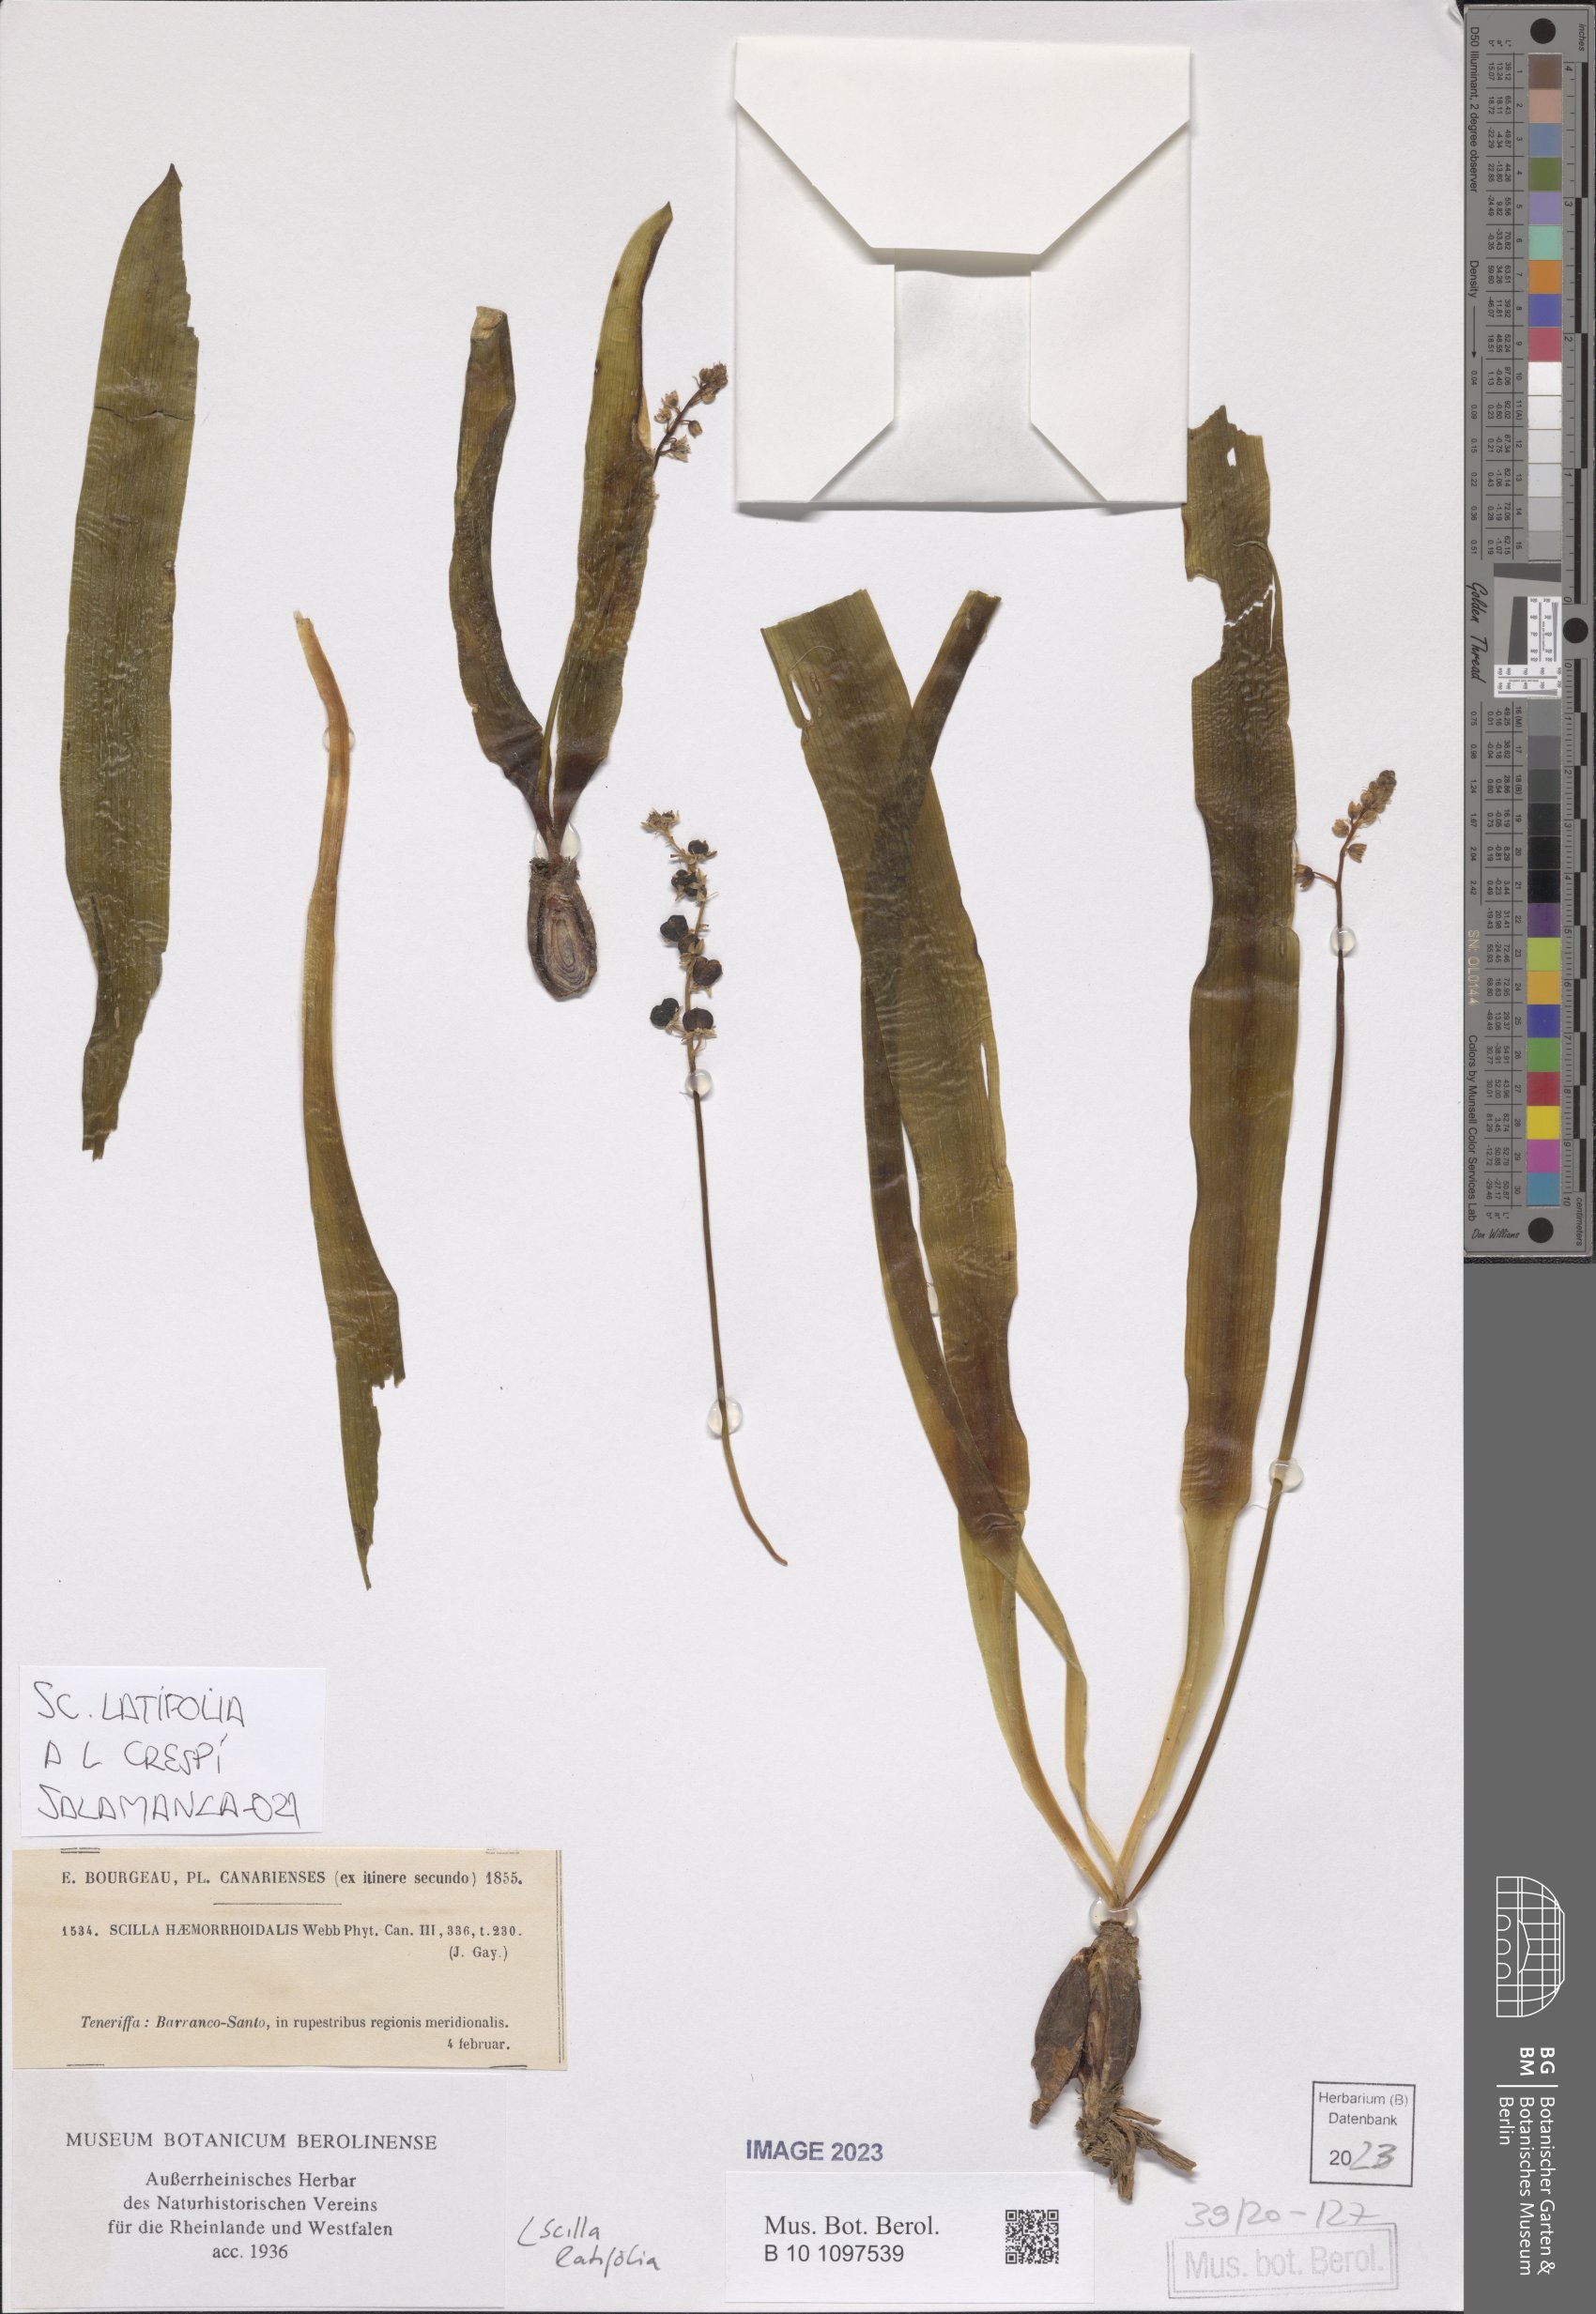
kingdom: Plantae
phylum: Tracheophyta
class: Liliopsida
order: Asparagales
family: Asparagaceae
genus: Scilla
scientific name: Scilla latifolia
